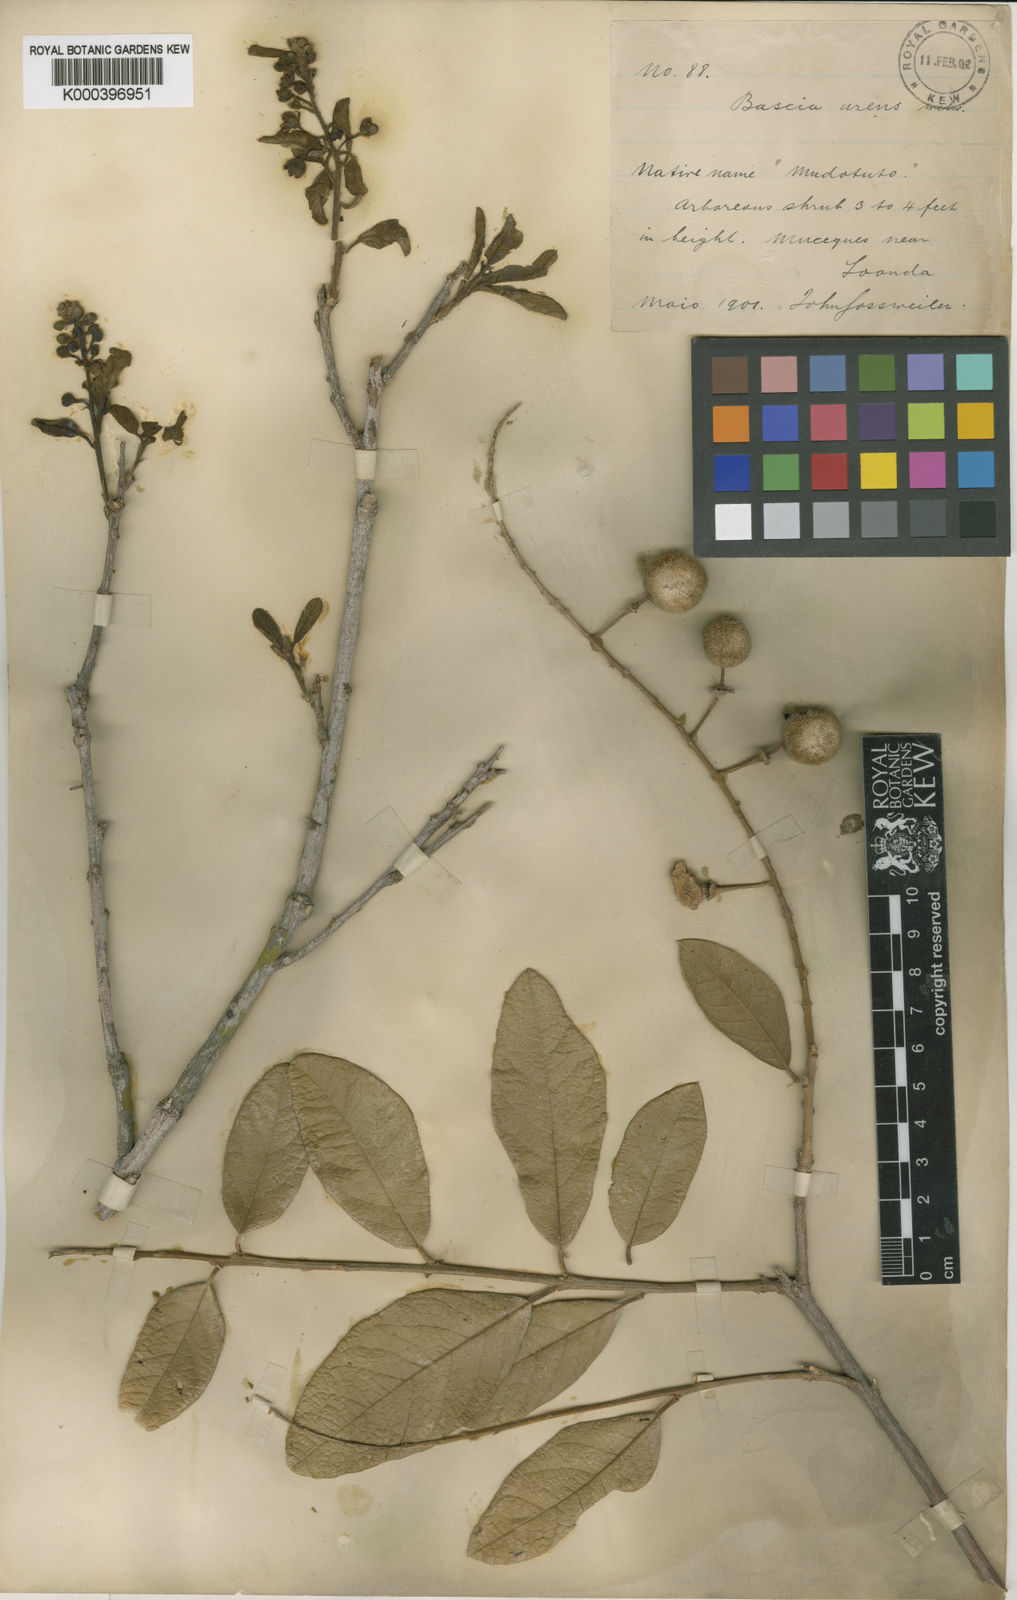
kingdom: Plantae
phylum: Tracheophyta
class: Magnoliopsida
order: Brassicales
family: Capparaceae
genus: Boscia
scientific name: Boscia
